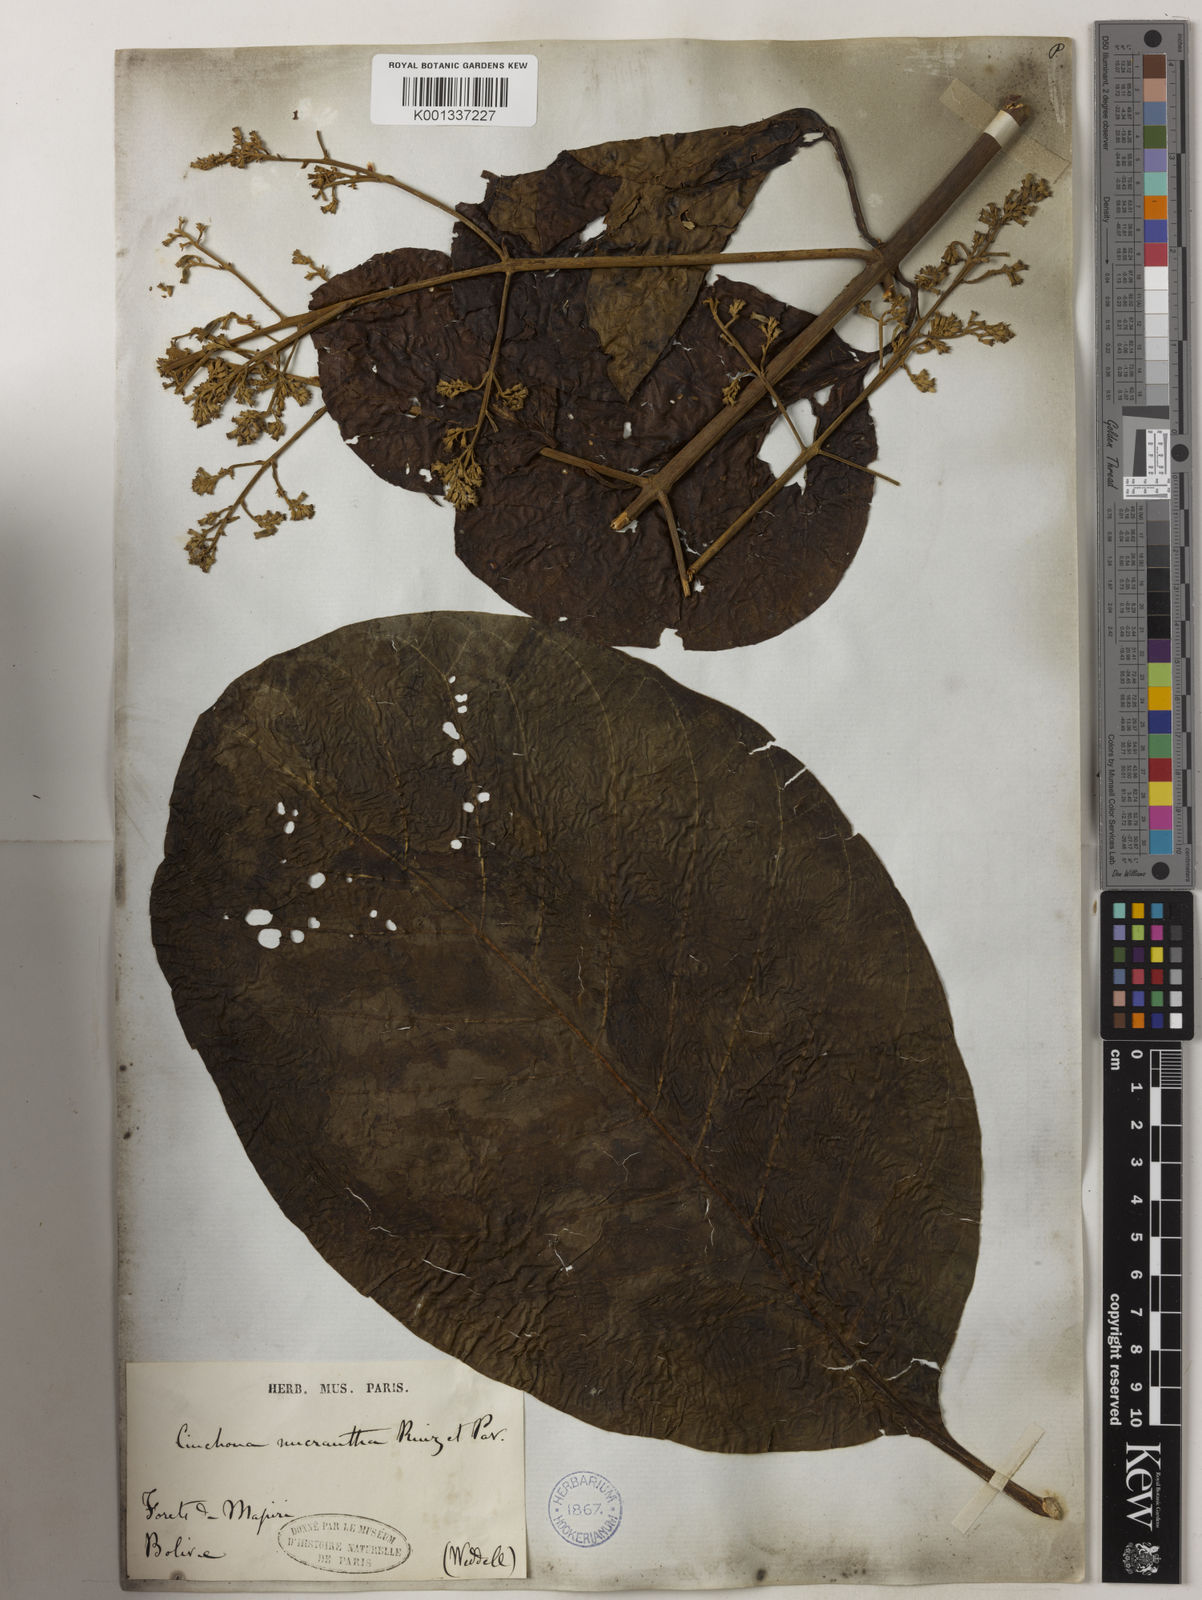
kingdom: Plantae
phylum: Tracheophyta
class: Magnoliopsida
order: Gentianales
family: Rubiaceae
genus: Cinchona
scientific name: Cinchona micrantha
